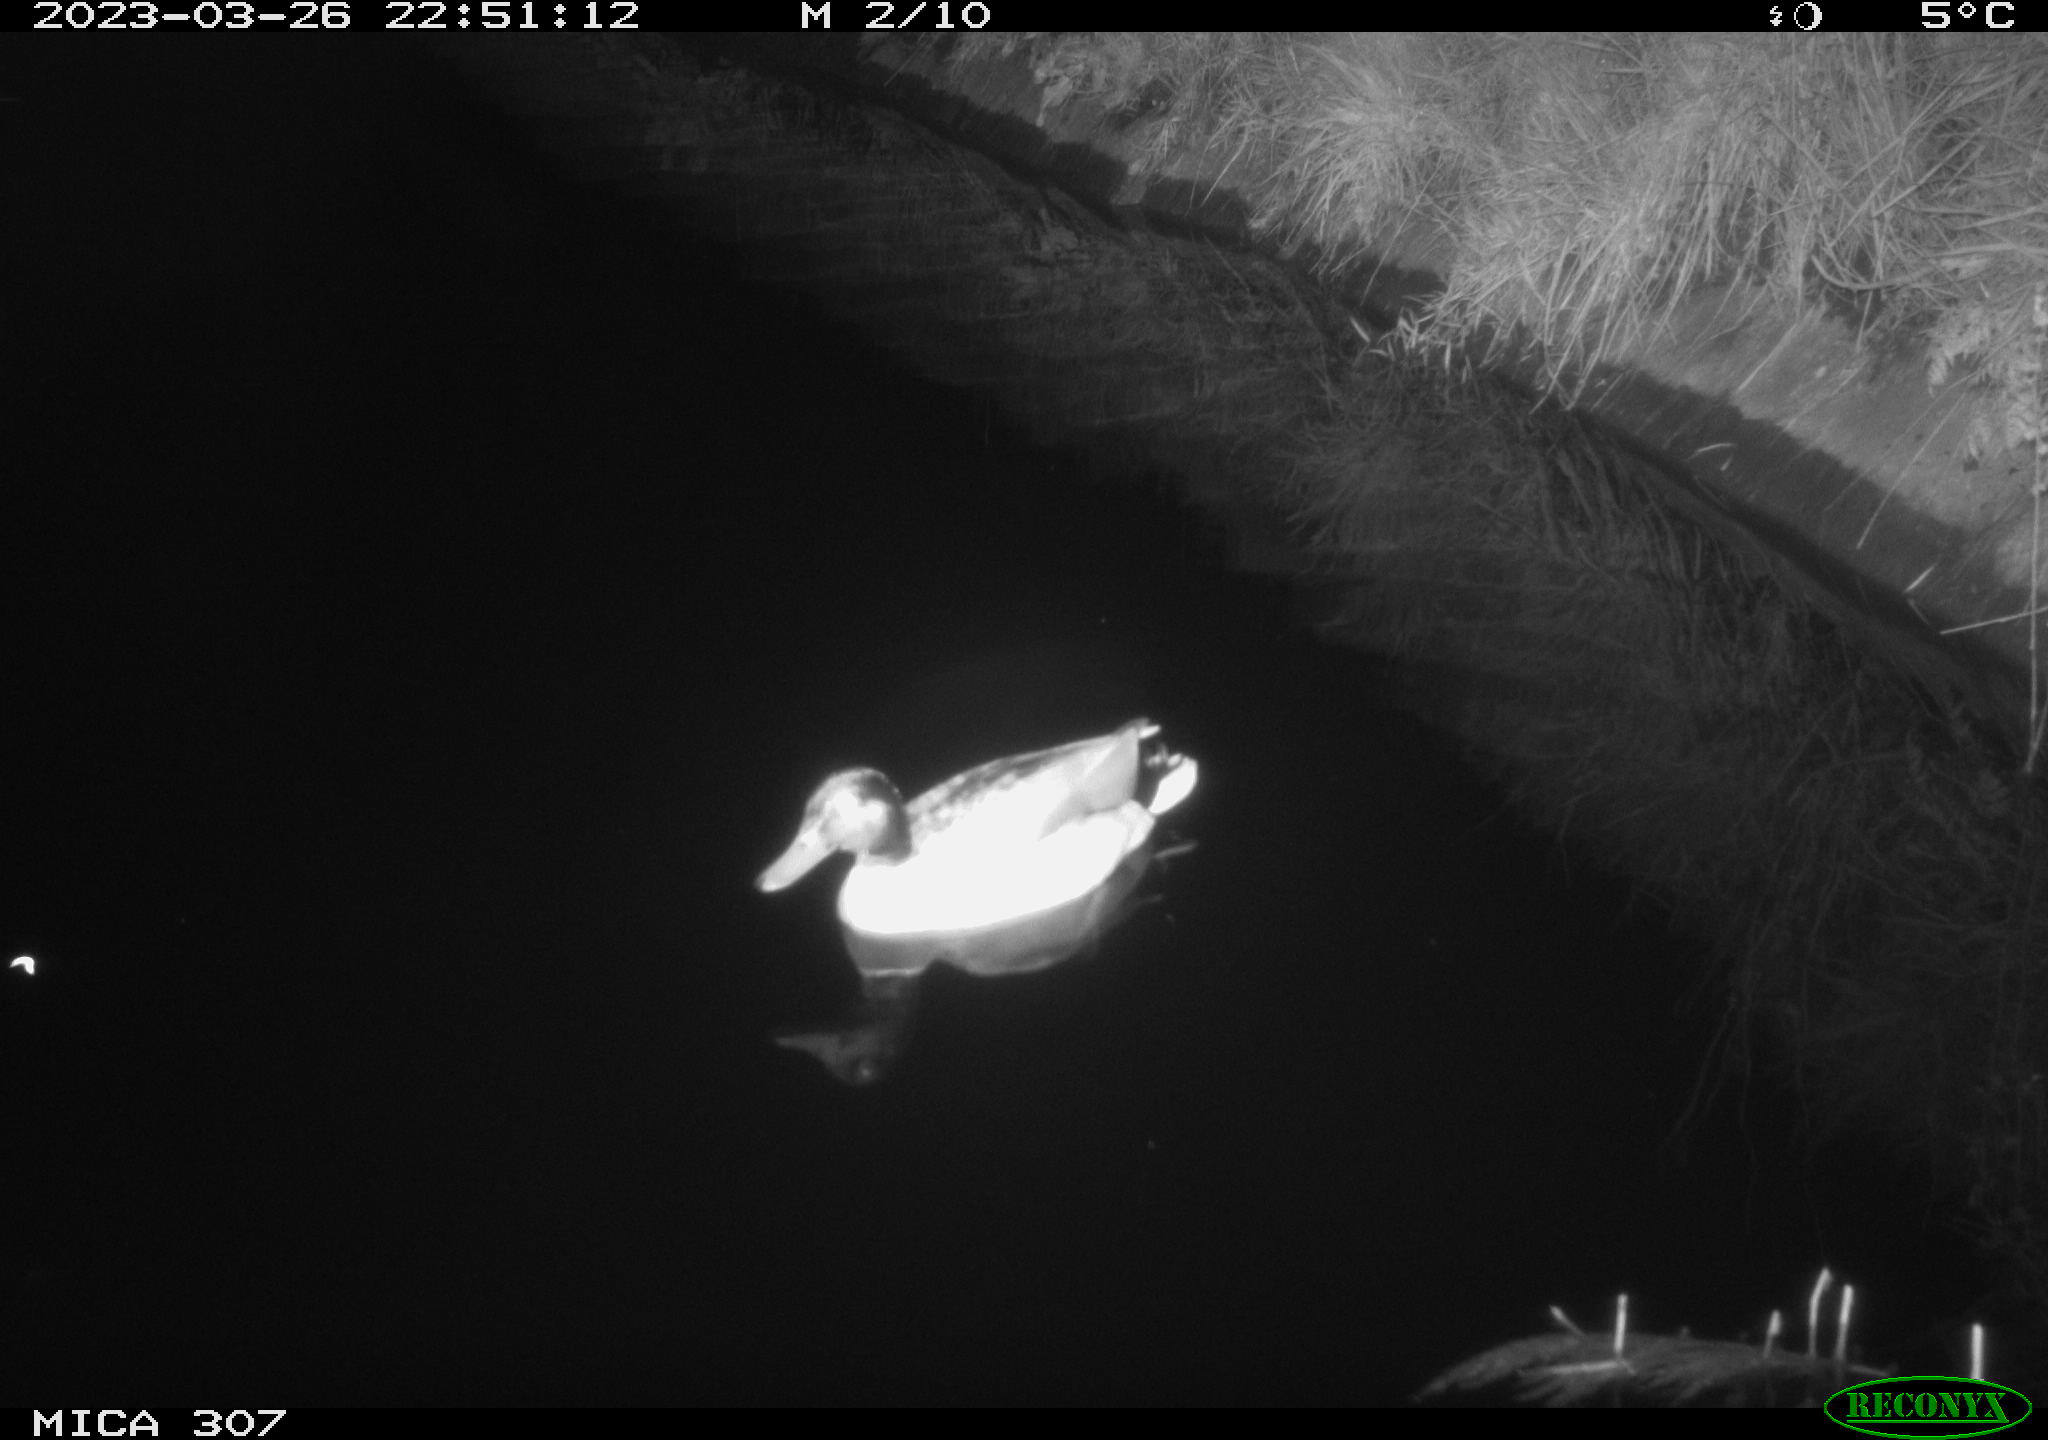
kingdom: Animalia
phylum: Chordata
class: Aves
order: Anseriformes
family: Anatidae
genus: Anas
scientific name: Anas
